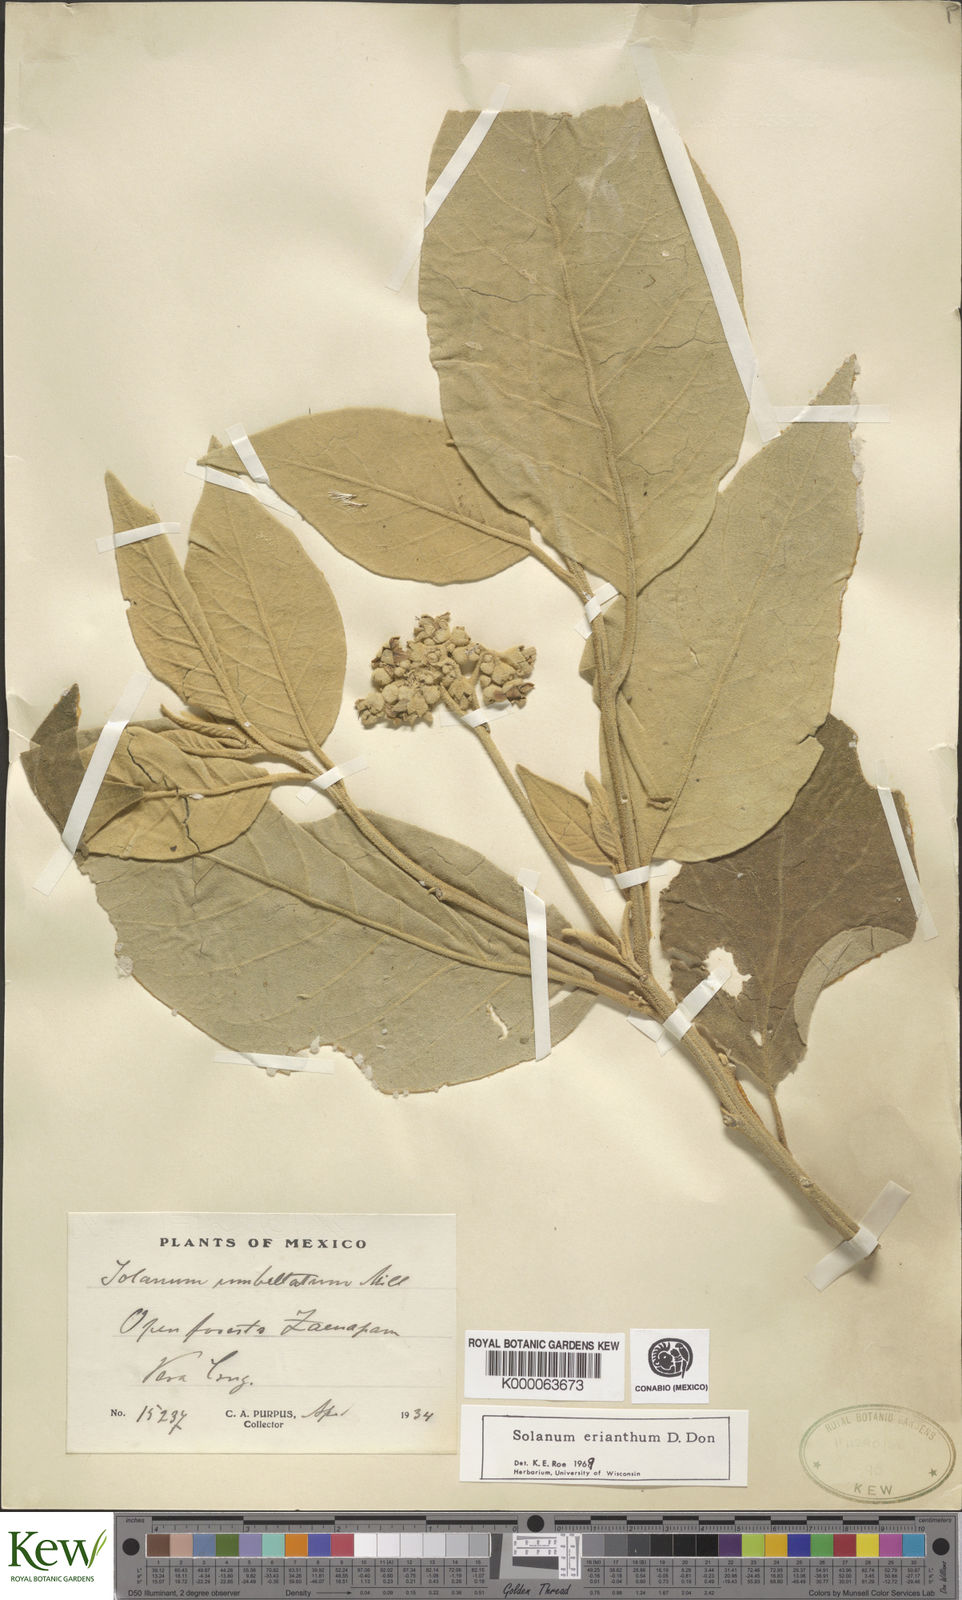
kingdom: Plantae
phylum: Tracheophyta
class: Magnoliopsida
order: Solanales
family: Solanaceae
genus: Solanum
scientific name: Solanum erianthum
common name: Tobacco-tree
